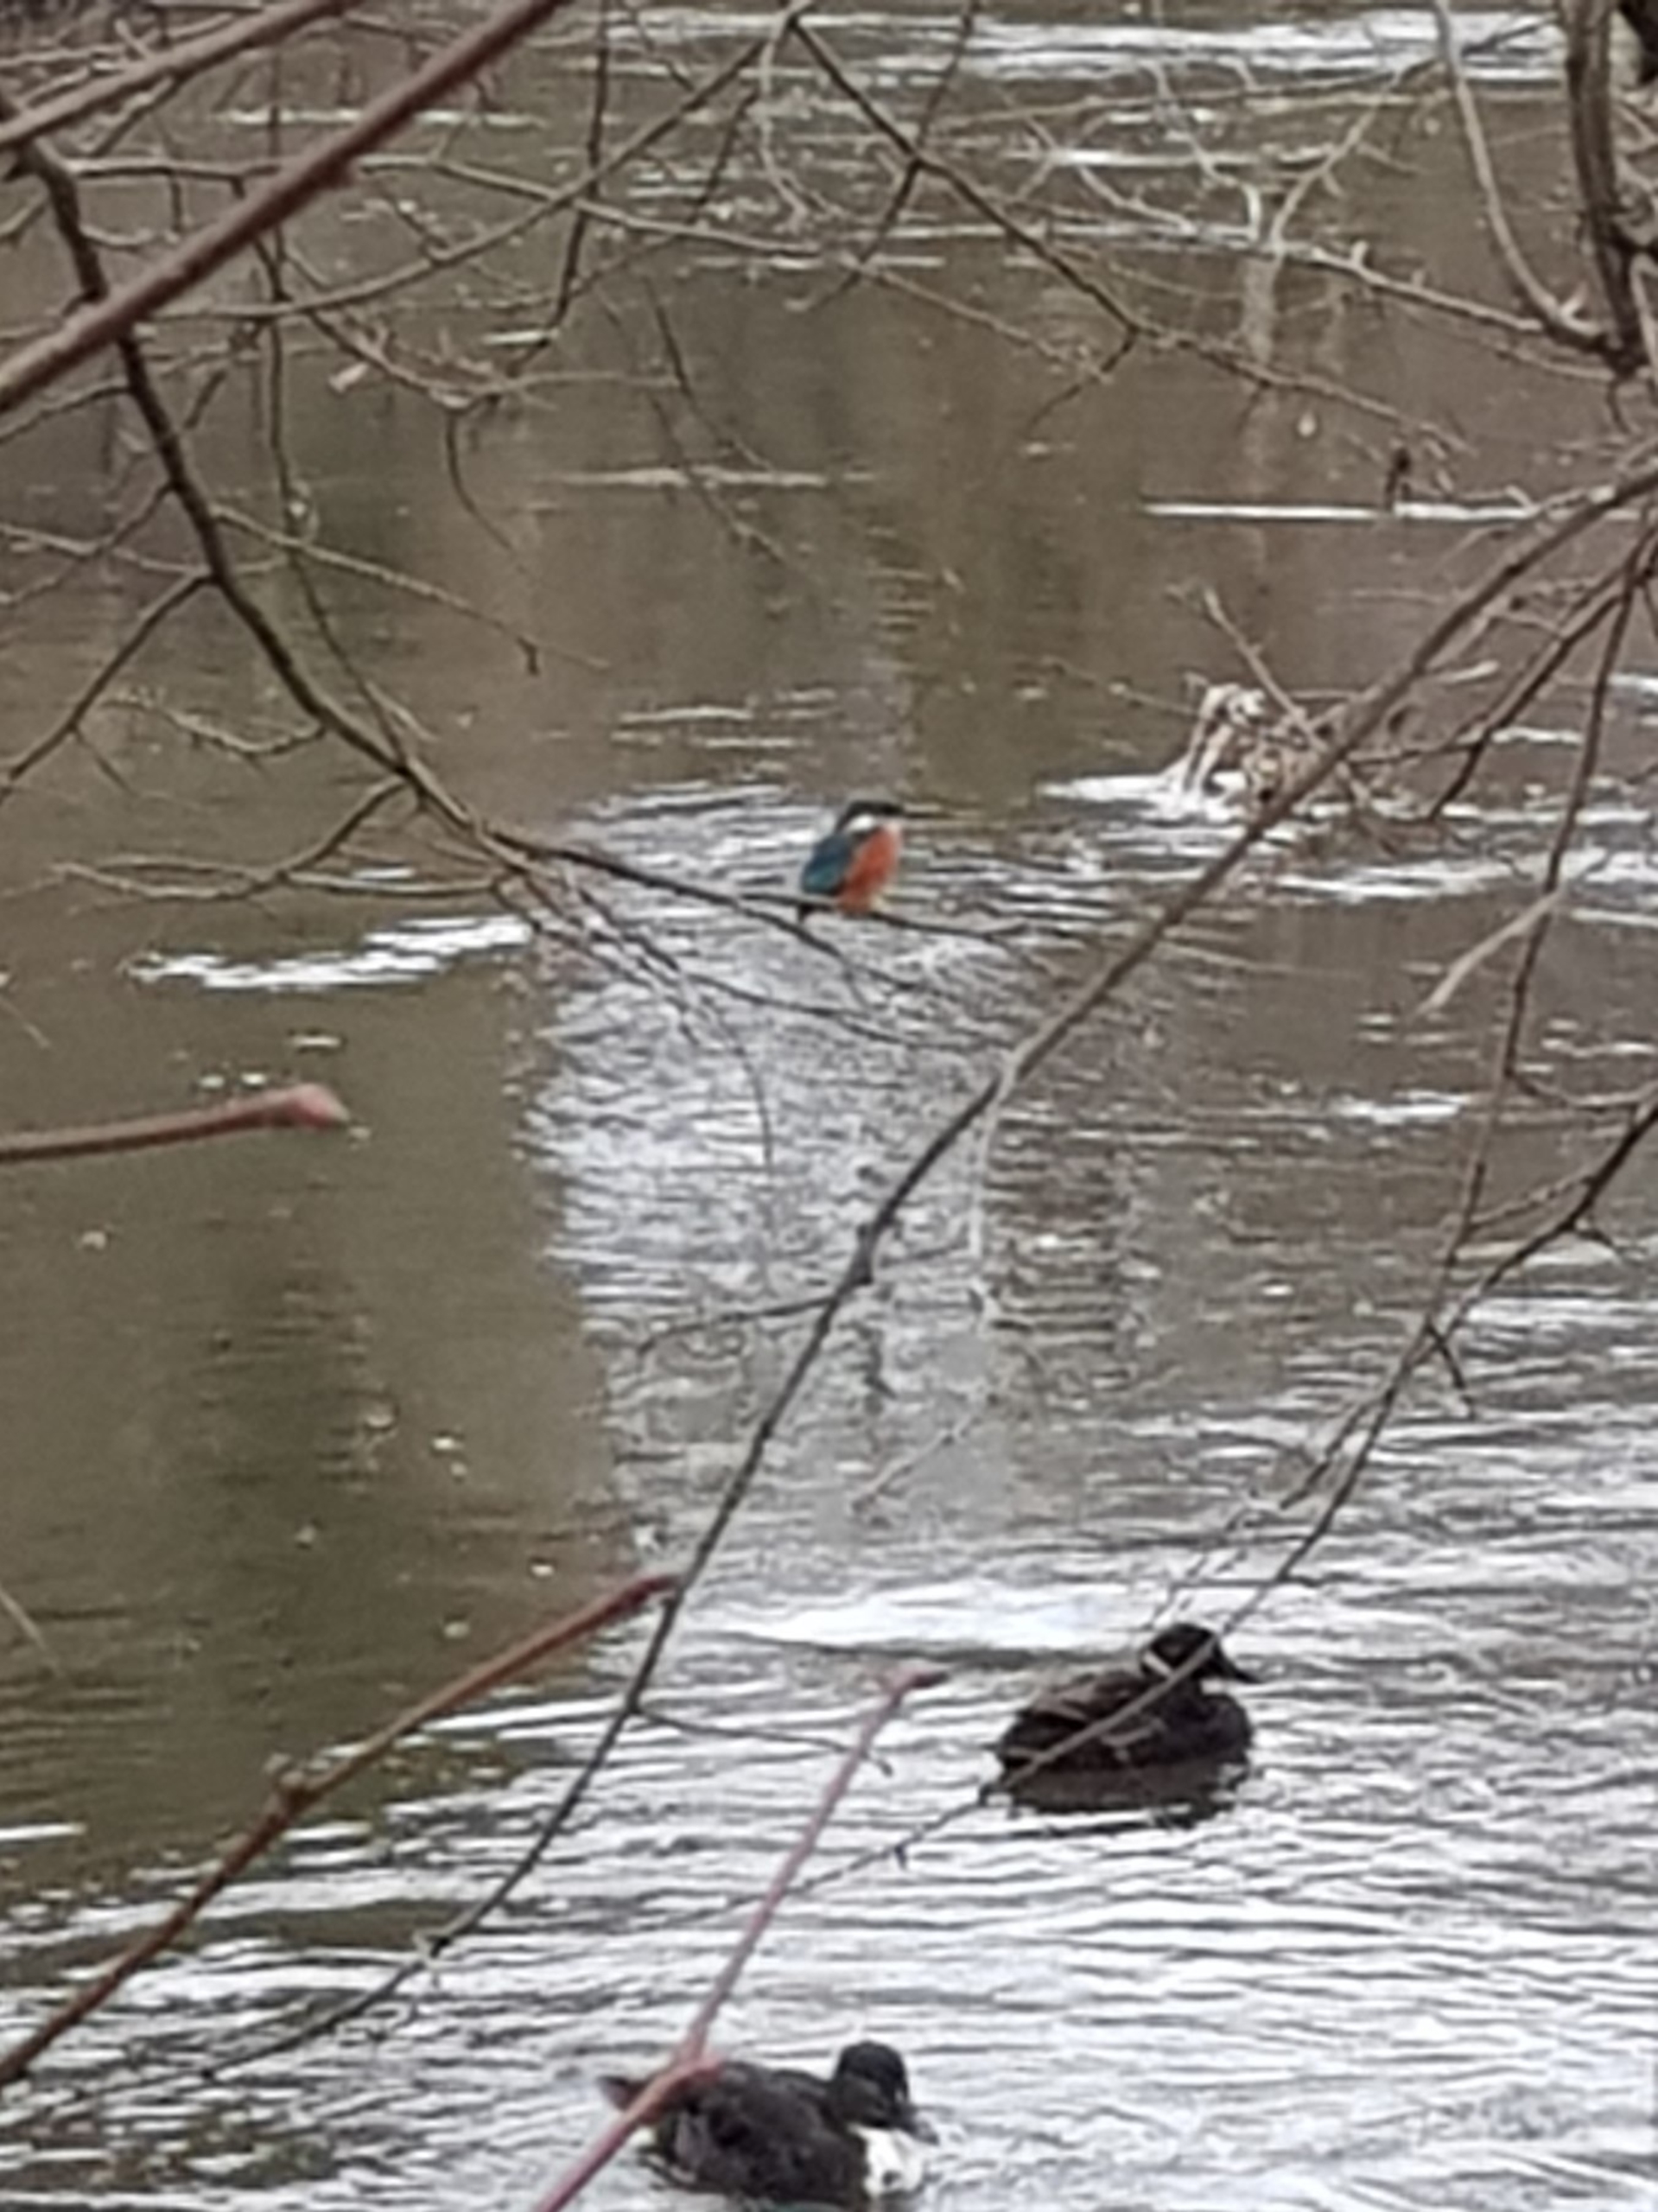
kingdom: Animalia
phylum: Chordata
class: Aves
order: Coraciiformes
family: Alcedinidae
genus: Alcedo
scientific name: Alcedo atthis
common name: Isfugl
